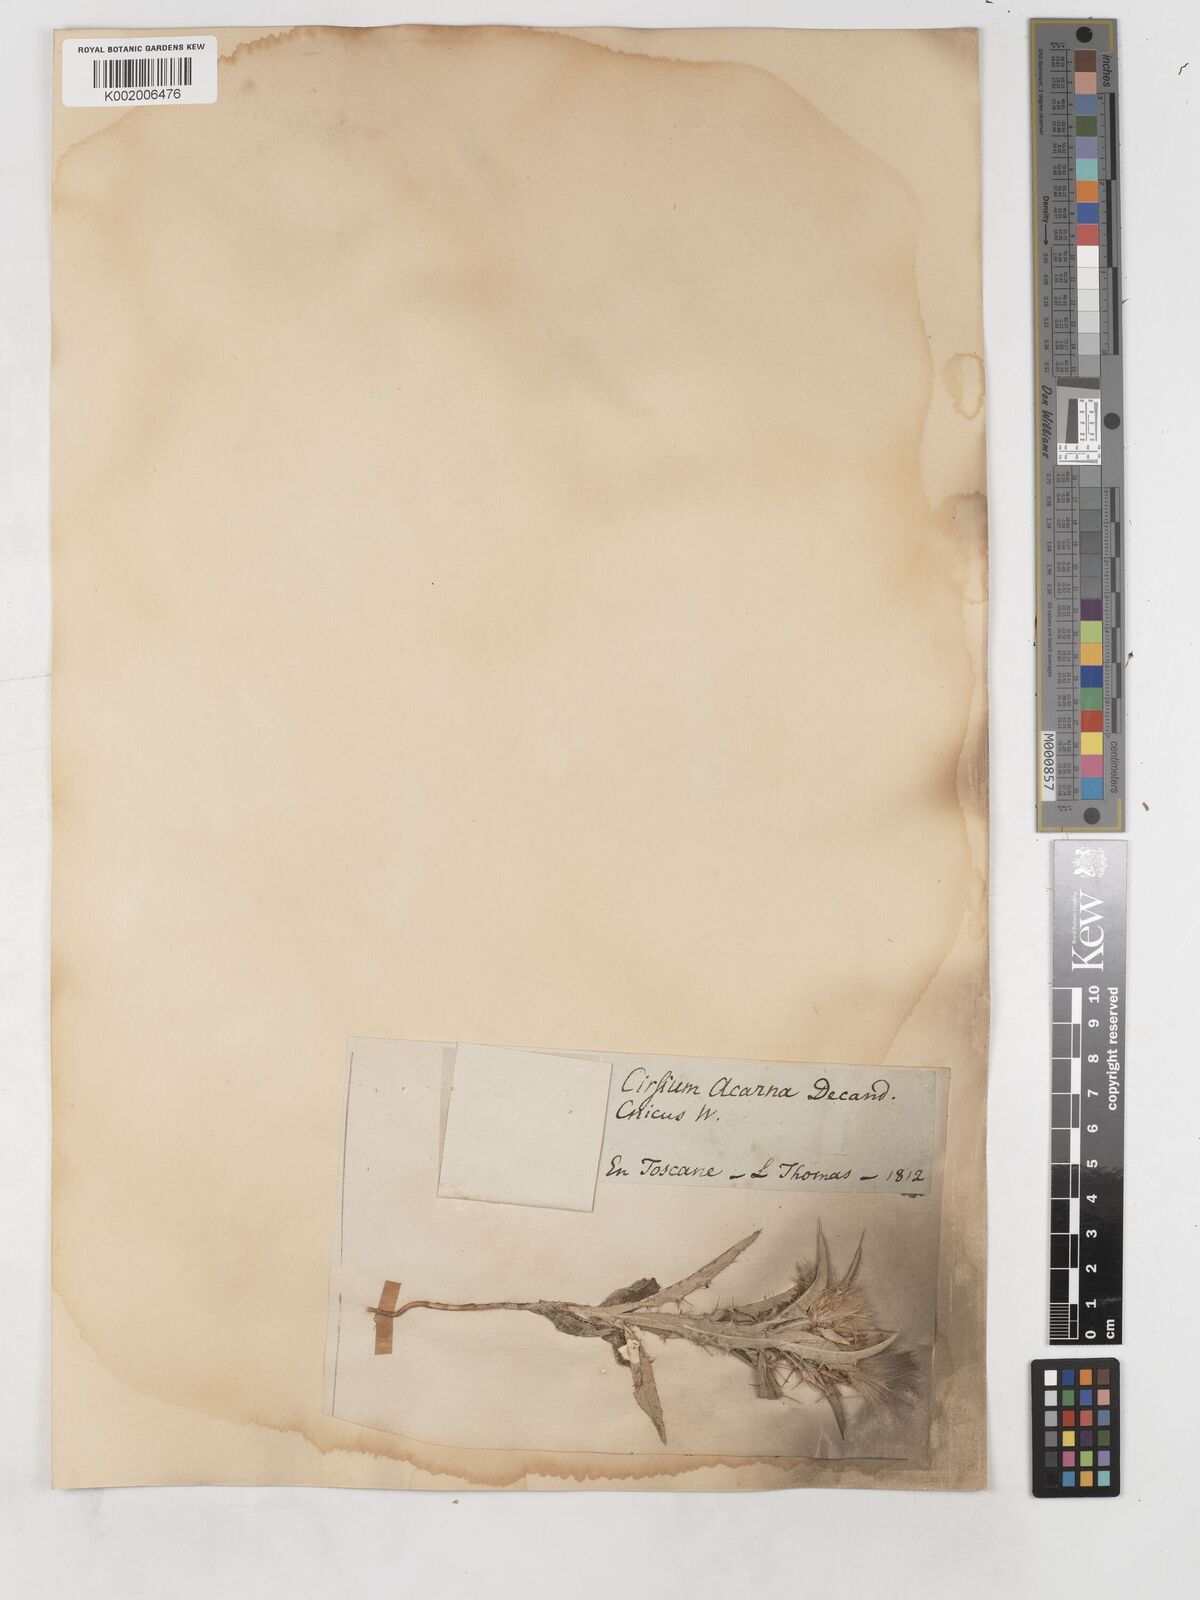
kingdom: Plantae
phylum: Tracheophyta
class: Magnoliopsida
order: Asterales
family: Asteraceae
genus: Picnomon
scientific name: Picnomon acarna
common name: Soldier thistle
